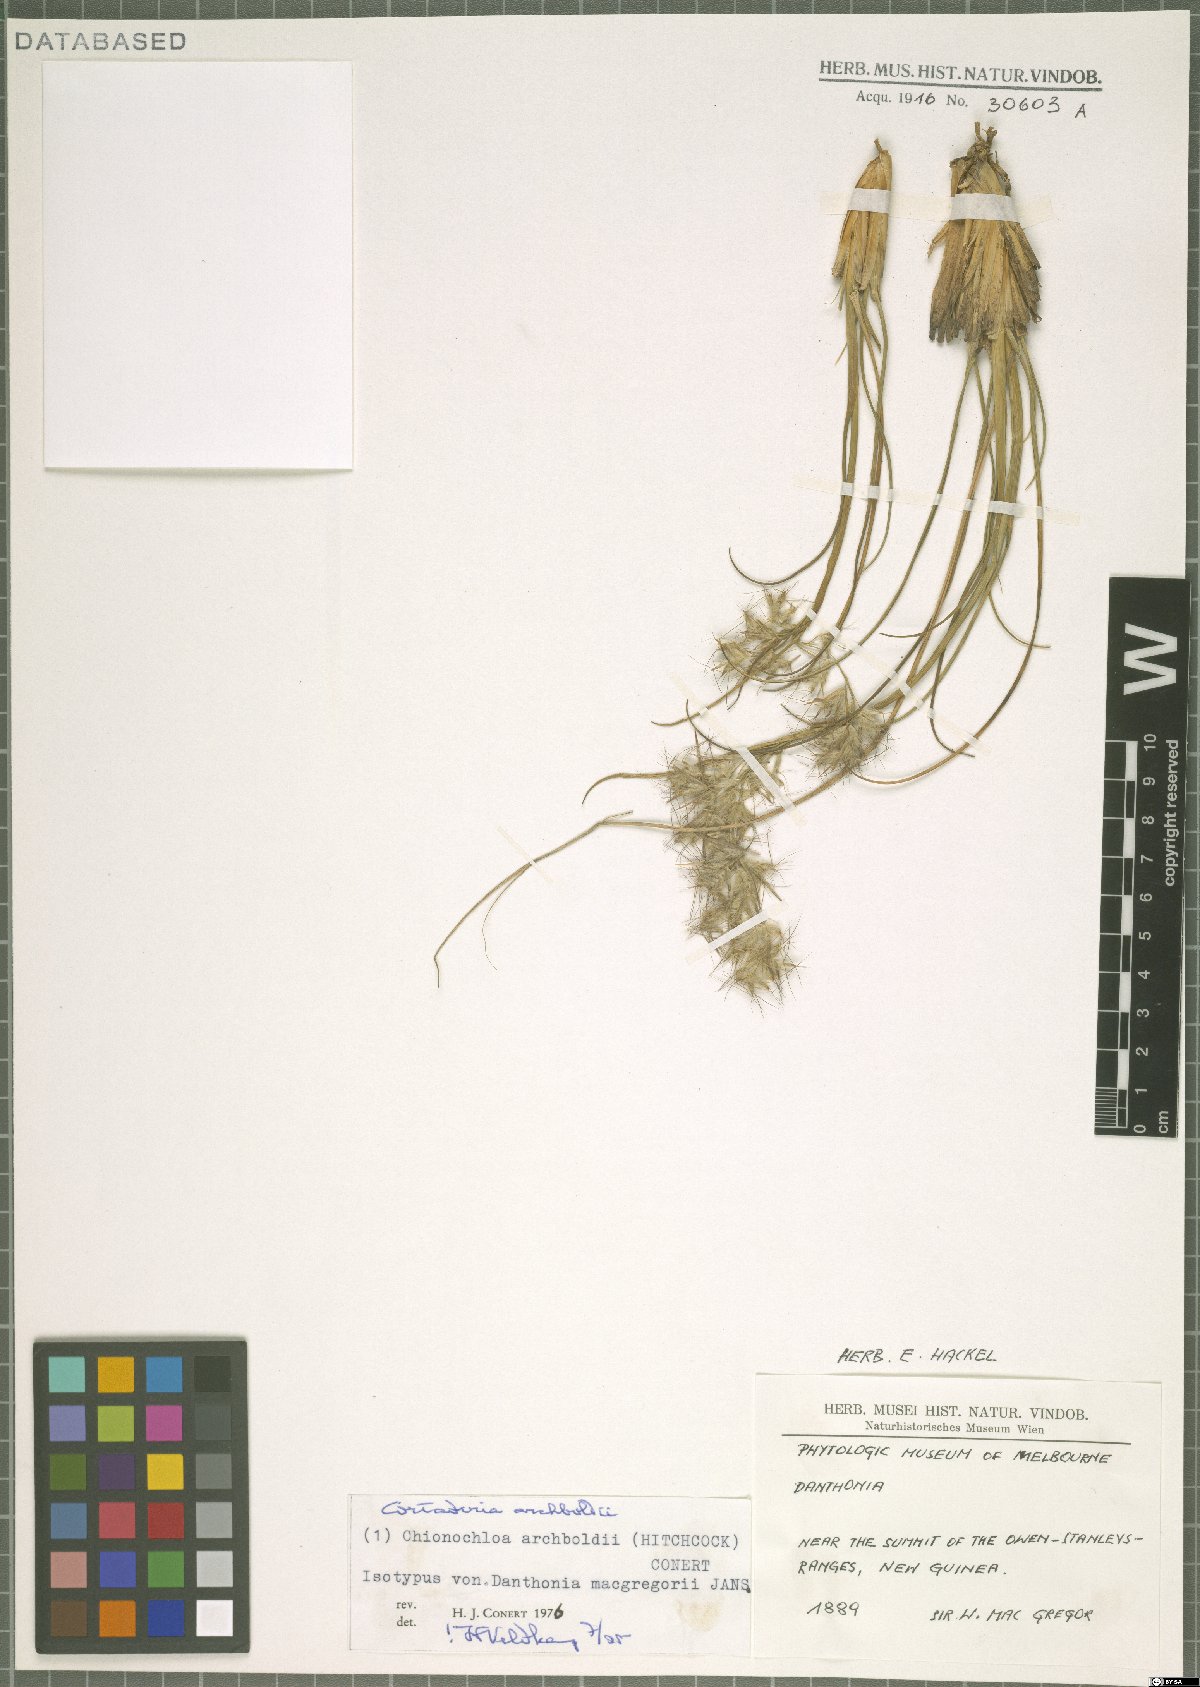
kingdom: Plantae
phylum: Tracheophyta
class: Liliopsida
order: Poales
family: Poaceae
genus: Chimaerochloa
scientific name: Chimaerochloa archboldii
